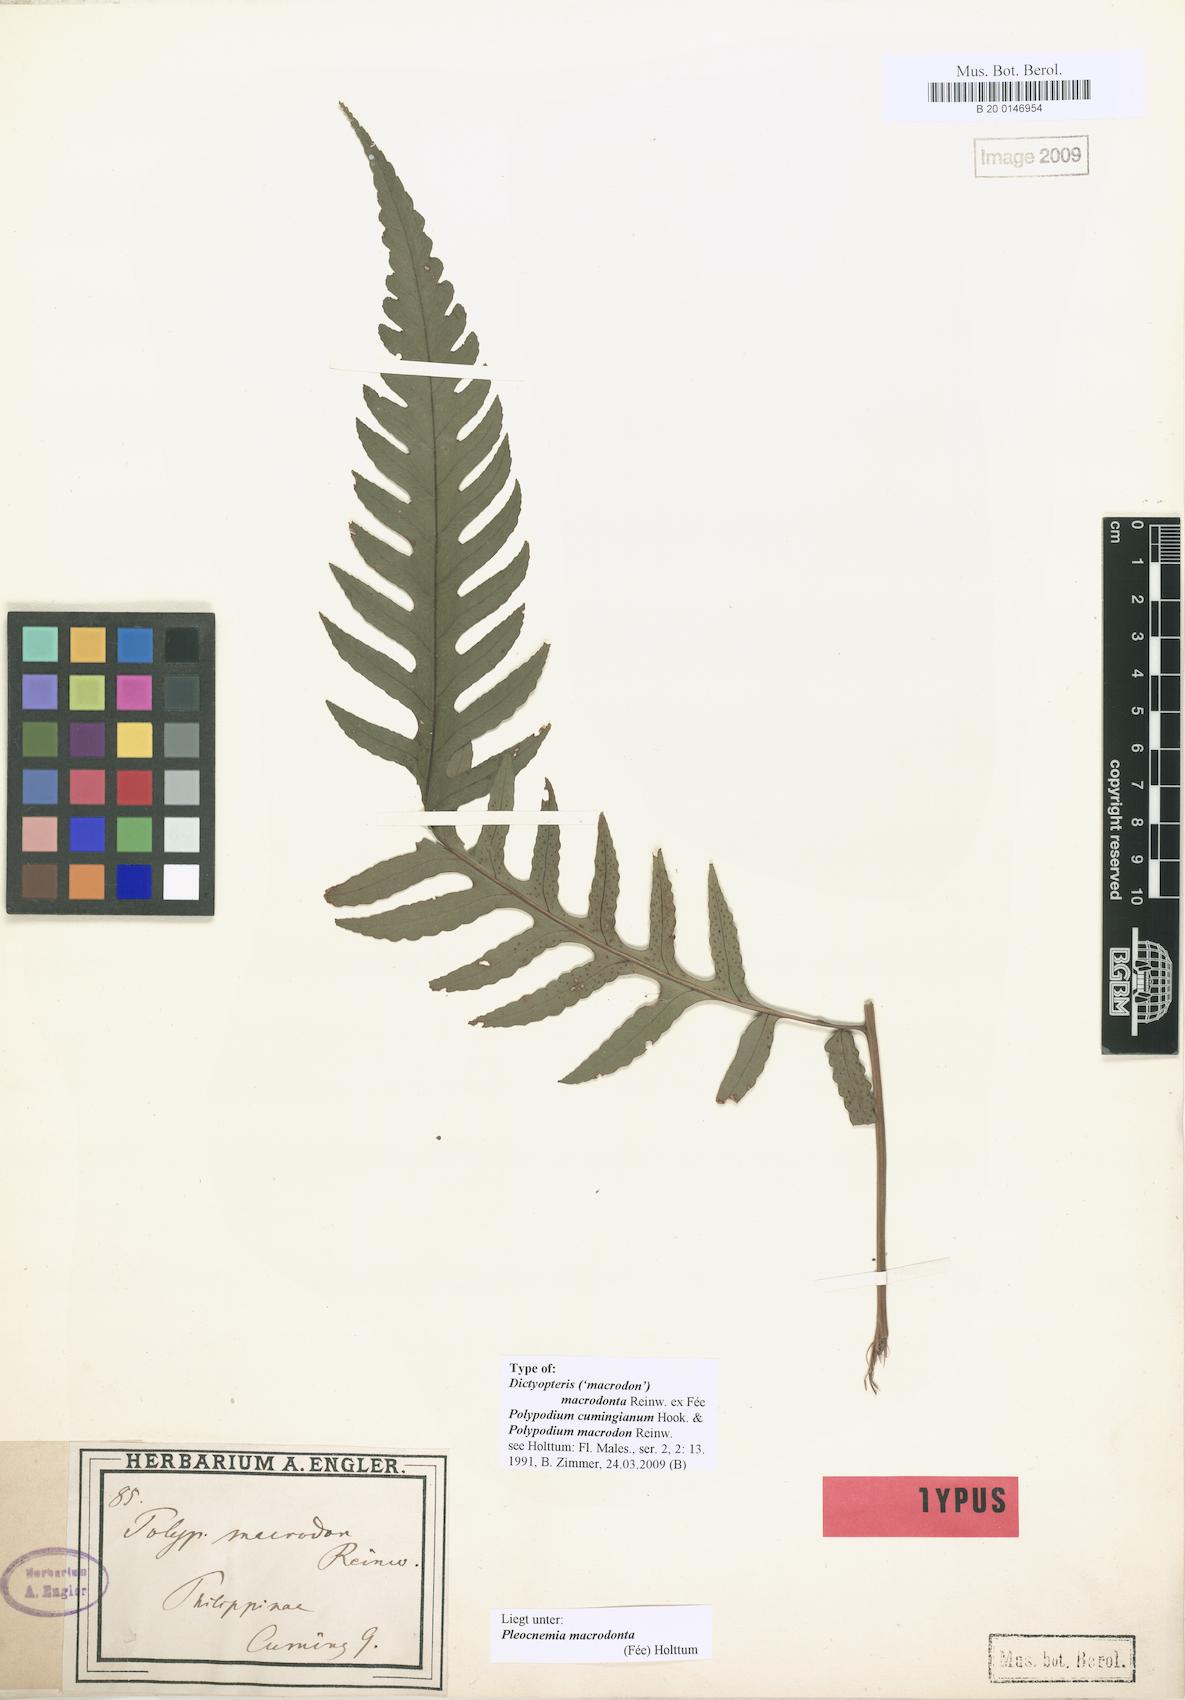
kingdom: Plantae
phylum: Tracheophyta
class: Polypodiopsida
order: Polypodiales
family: Dryopteridaceae
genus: Pleocnemia
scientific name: Pleocnemia macrodonta
